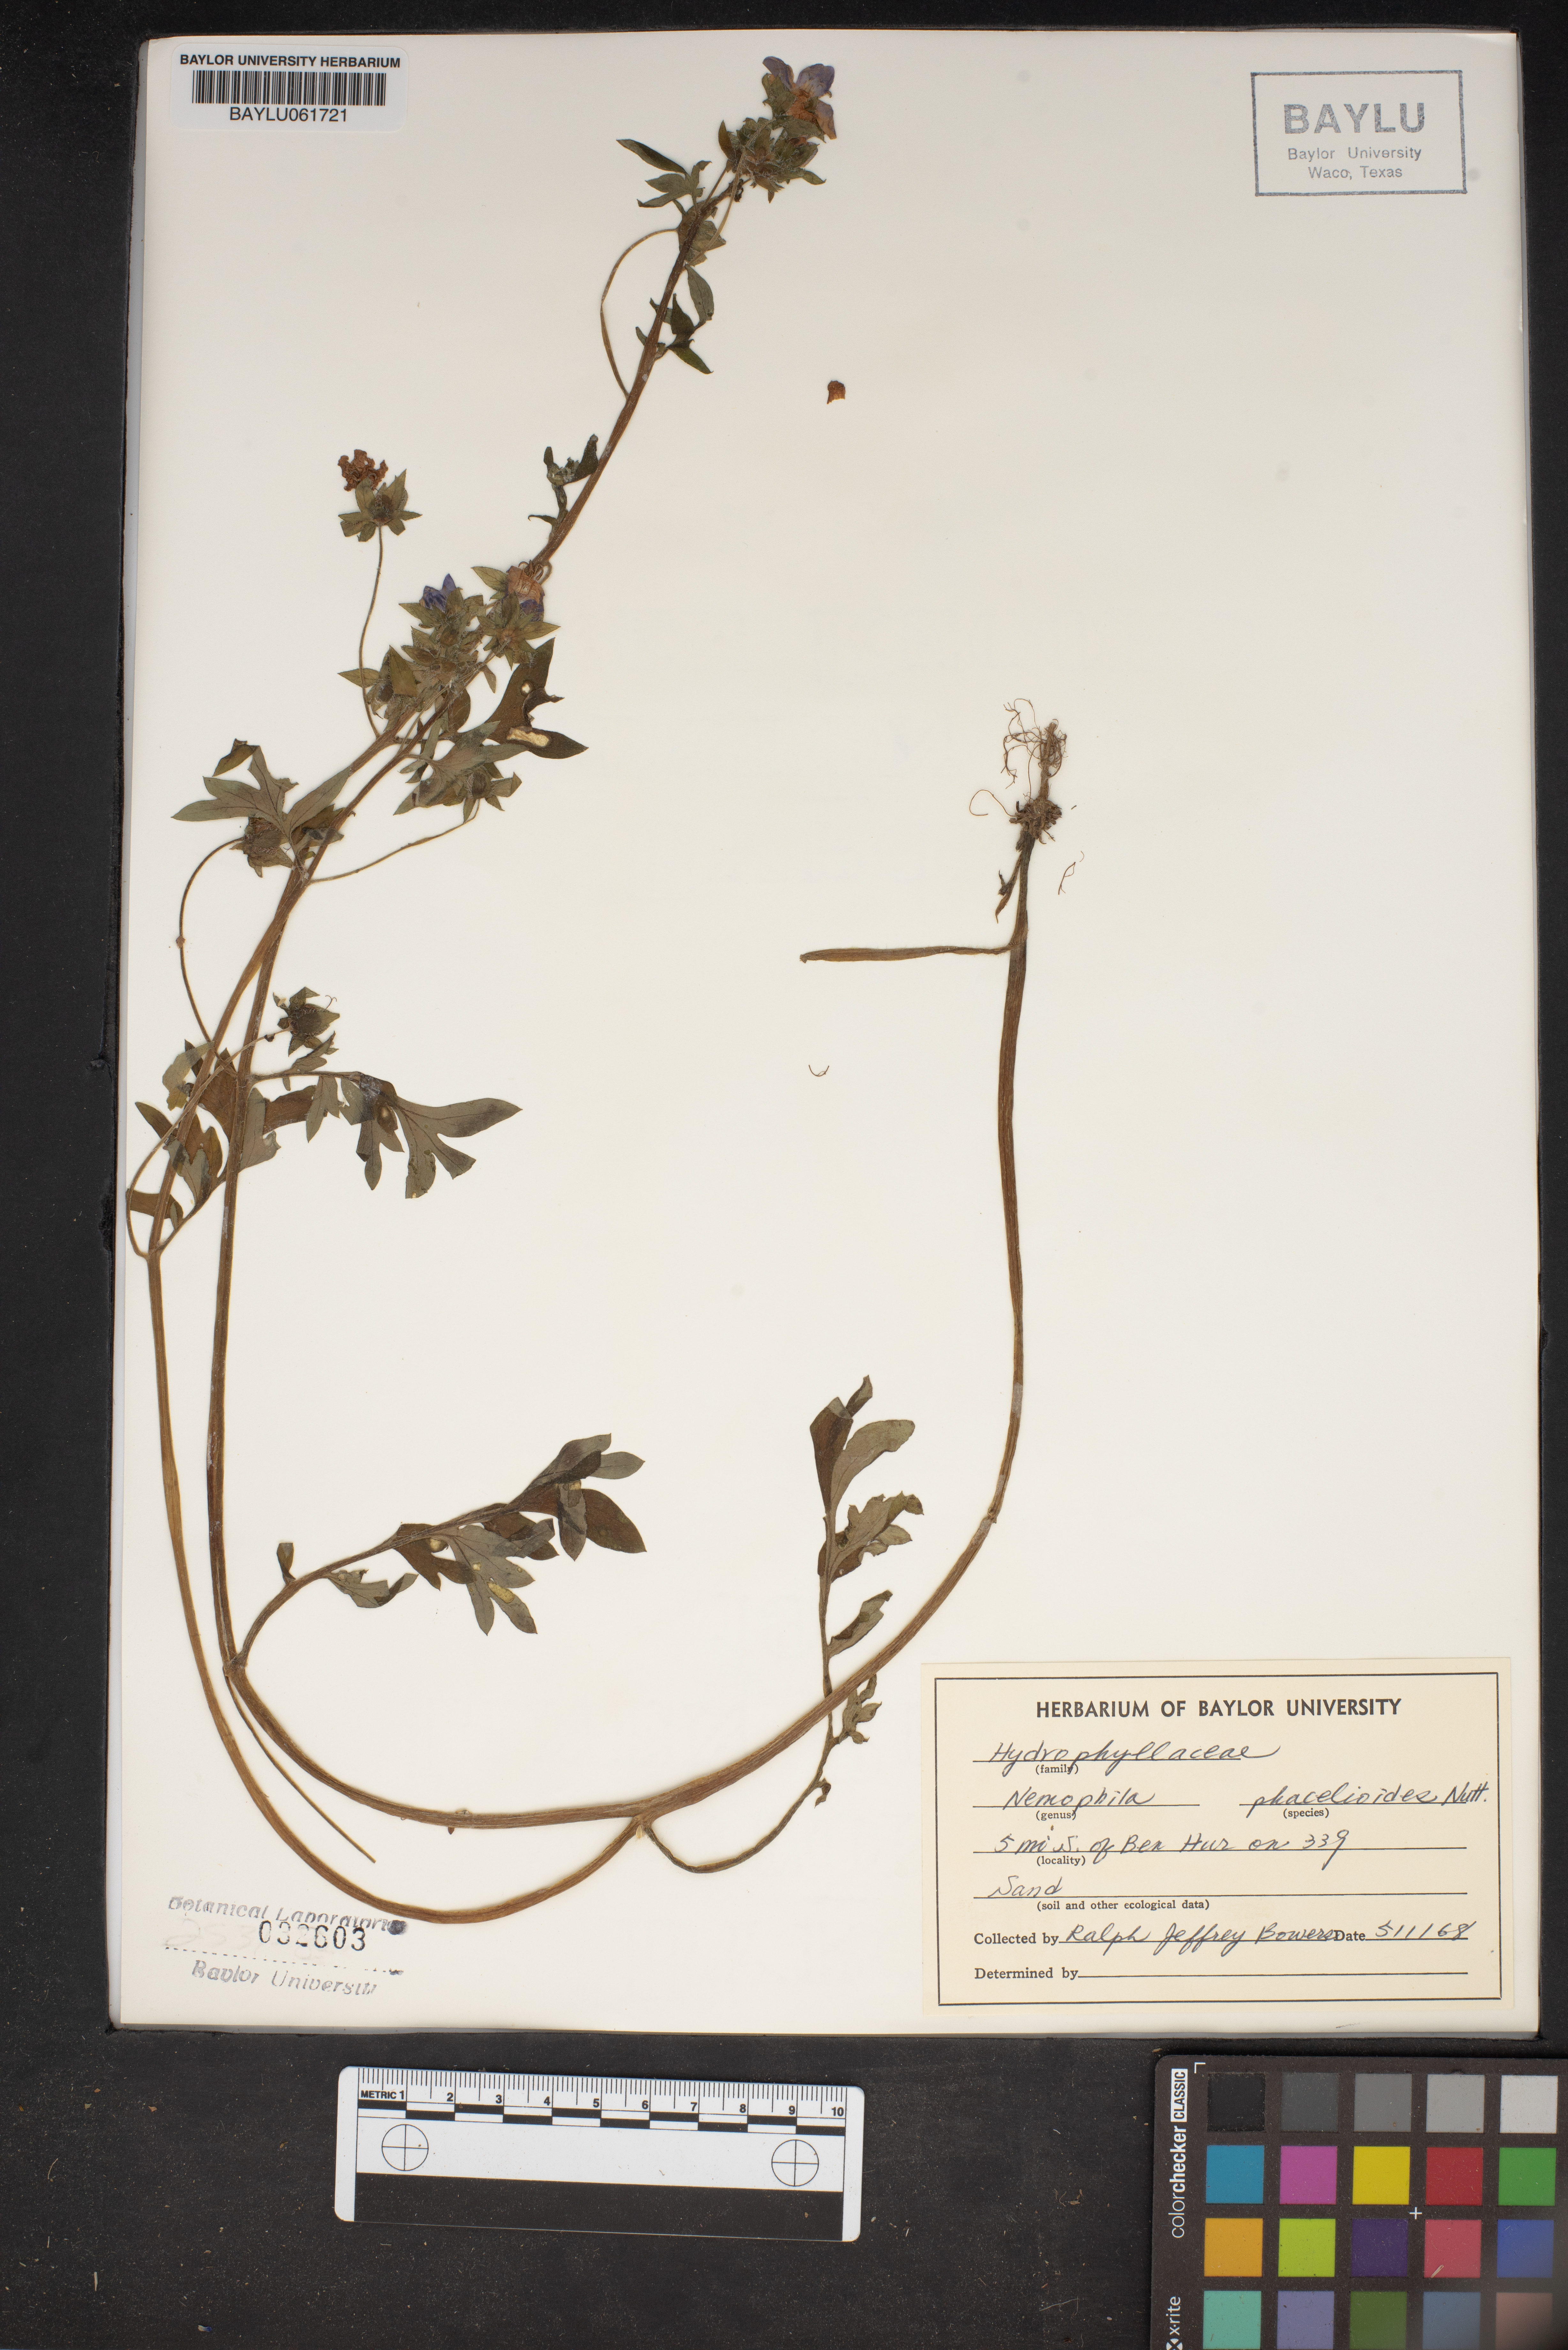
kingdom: Plantae
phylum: Tracheophyta
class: Magnoliopsida
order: Boraginales
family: Hydrophyllaceae
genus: Nemophila
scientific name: Nemophila phacelioides
